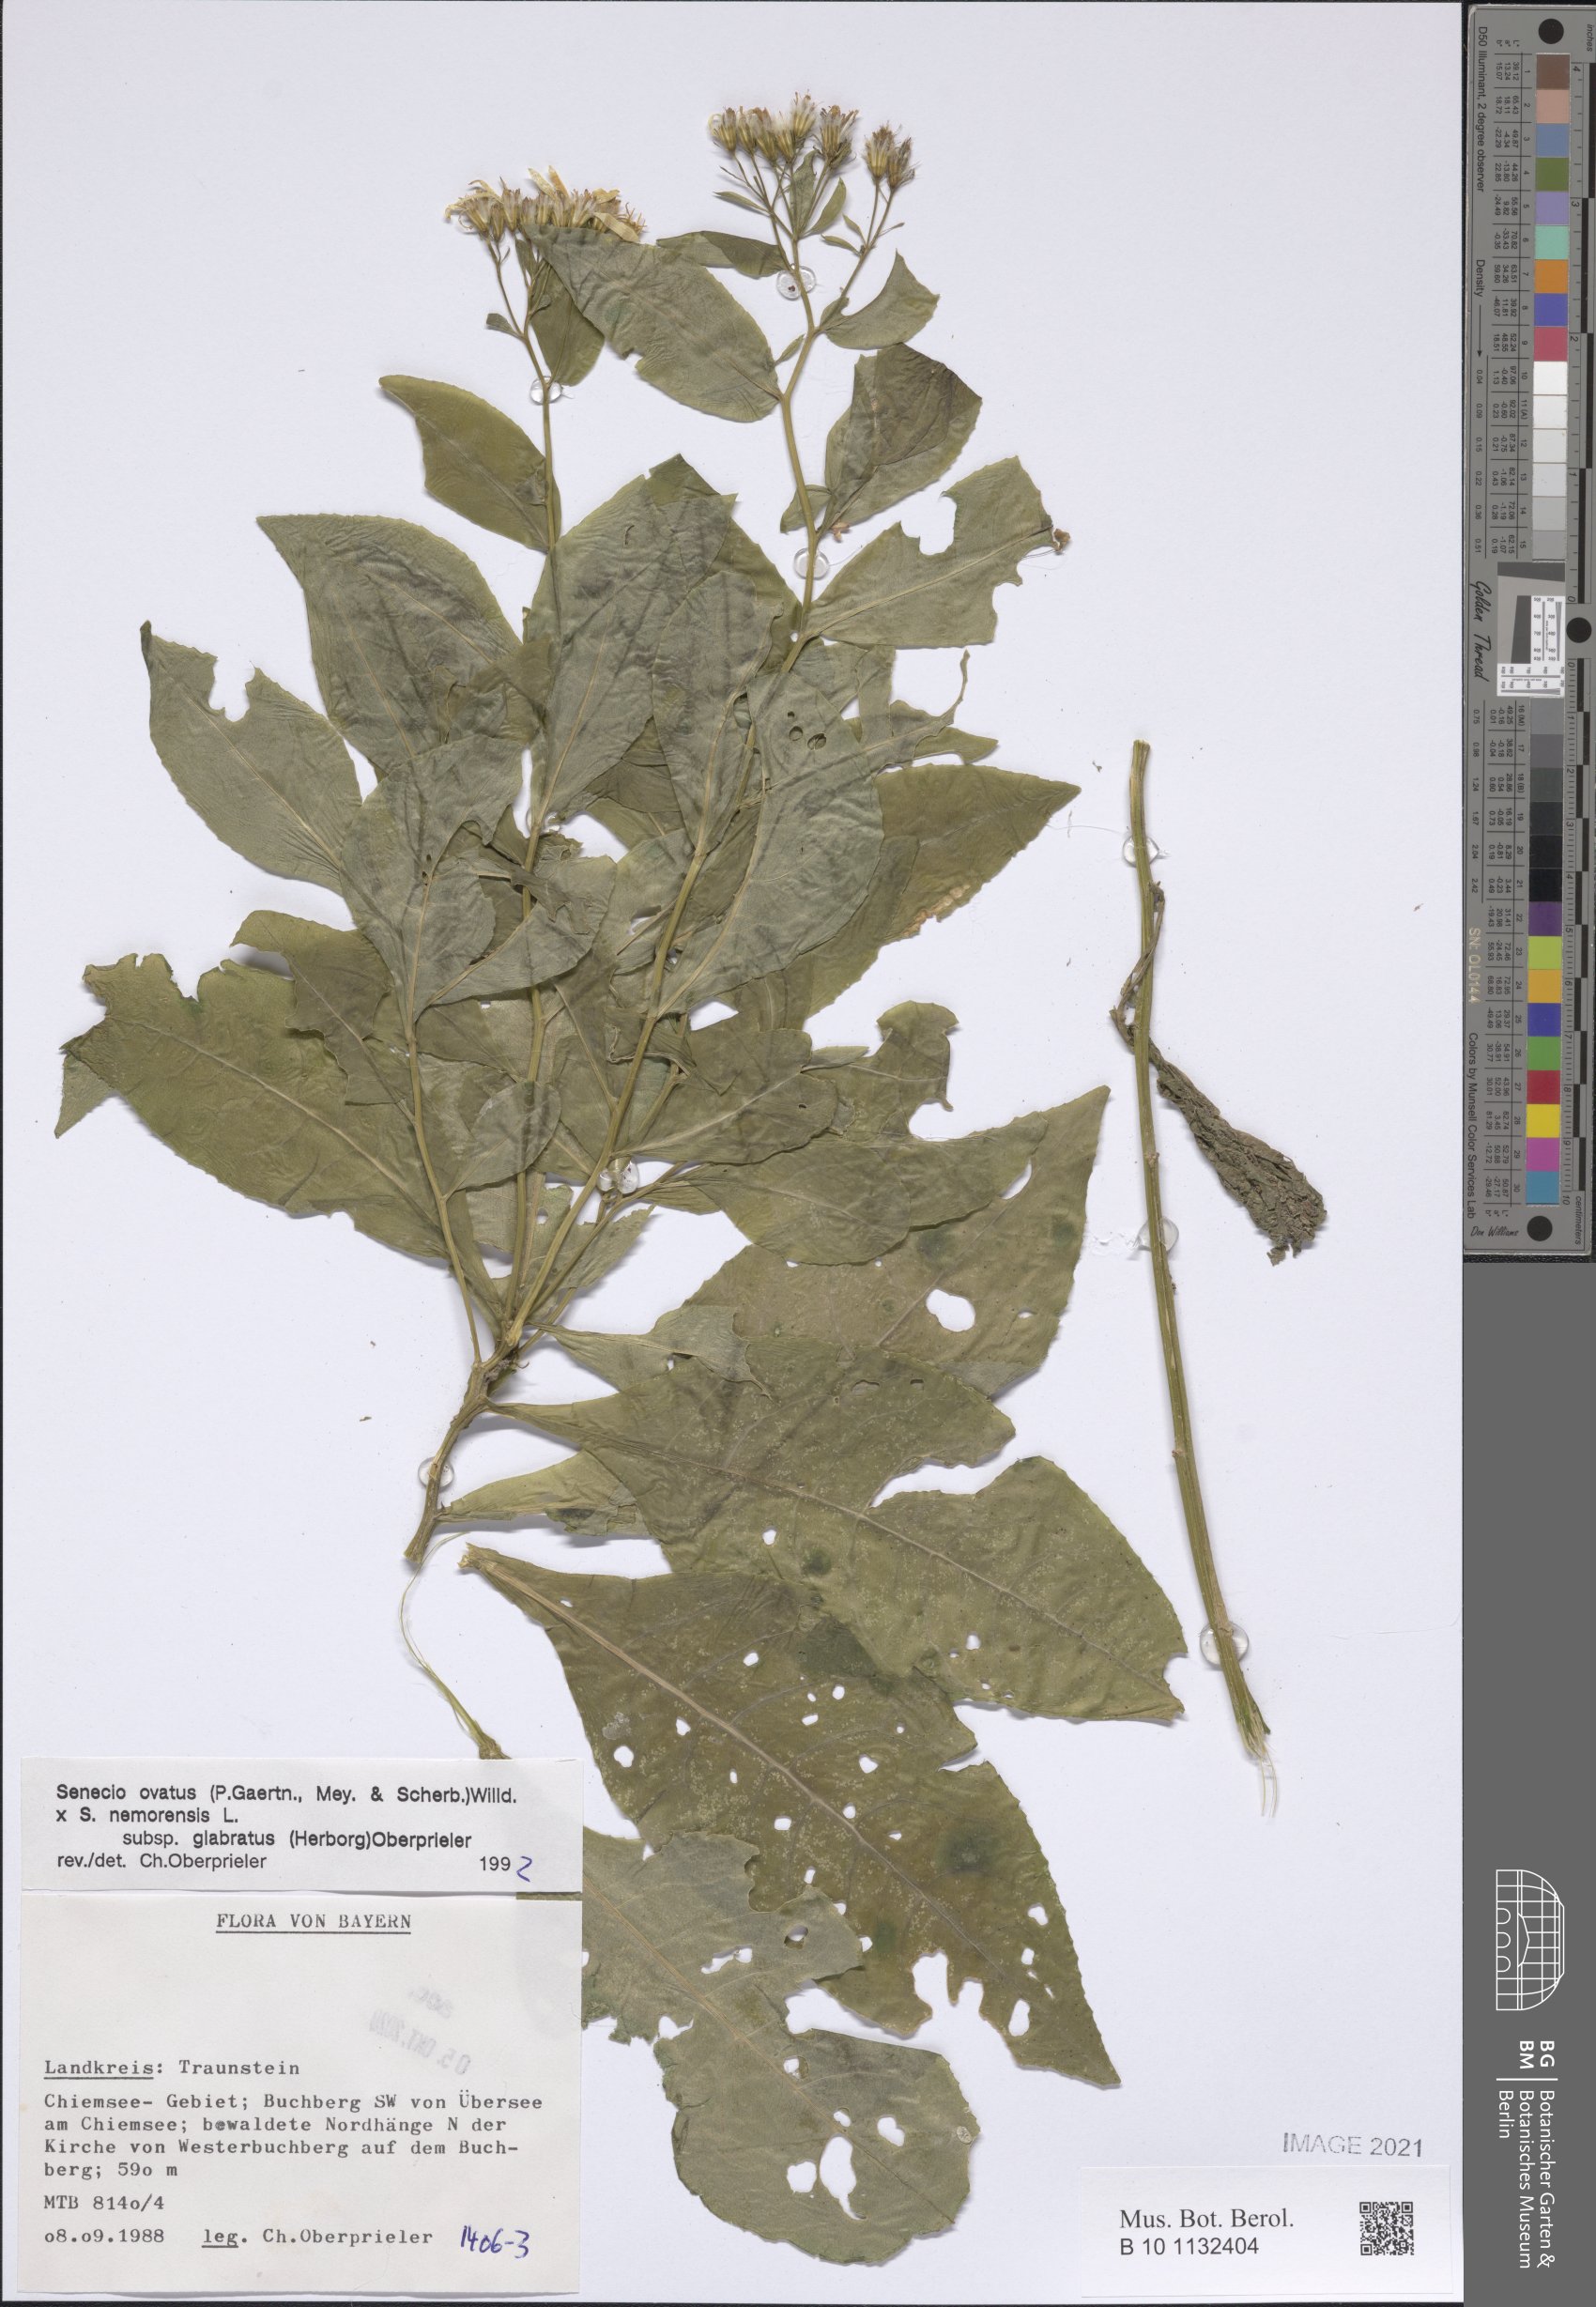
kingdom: Plantae
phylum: Tracheophyta
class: Magnoliopsida
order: Asterales
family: Asteraceae
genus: Senecio
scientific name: Senecio ovatus
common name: Wood ragwort
